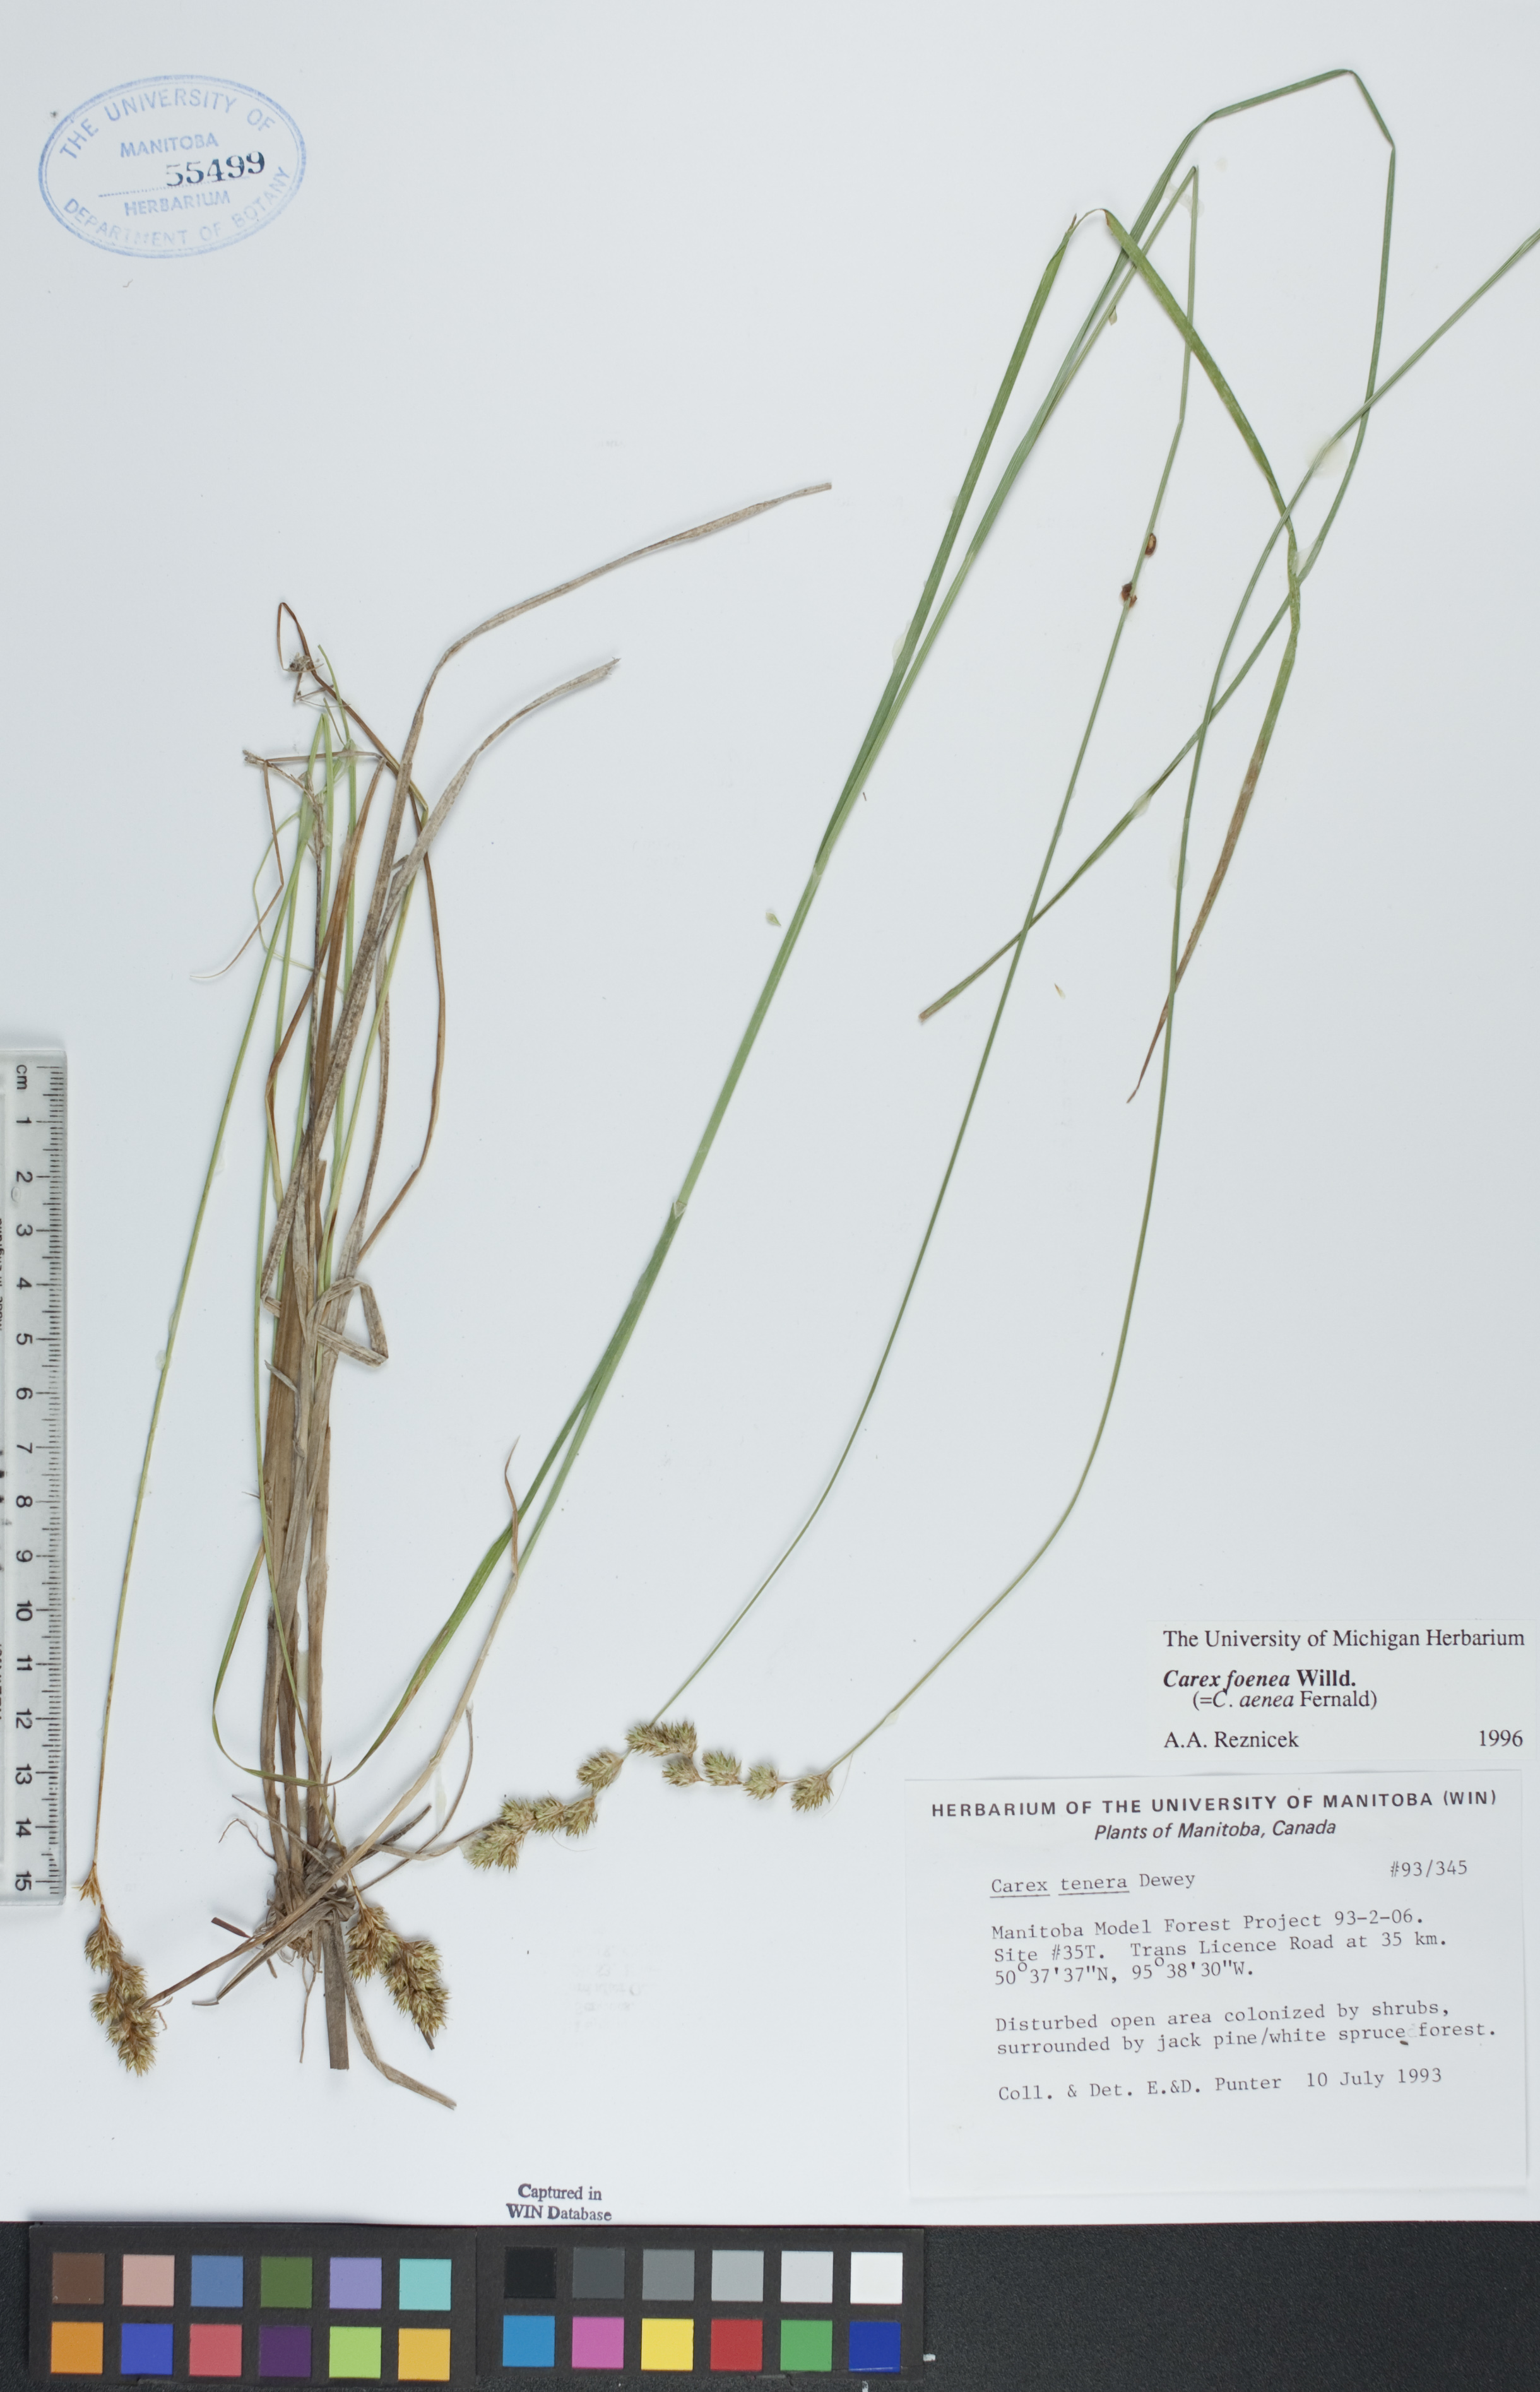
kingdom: Plantae
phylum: Tracheophyta
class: Liliopsida
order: Poales
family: Cyperaceae
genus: Carex
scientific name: Carex foenea
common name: Bronze sedge
